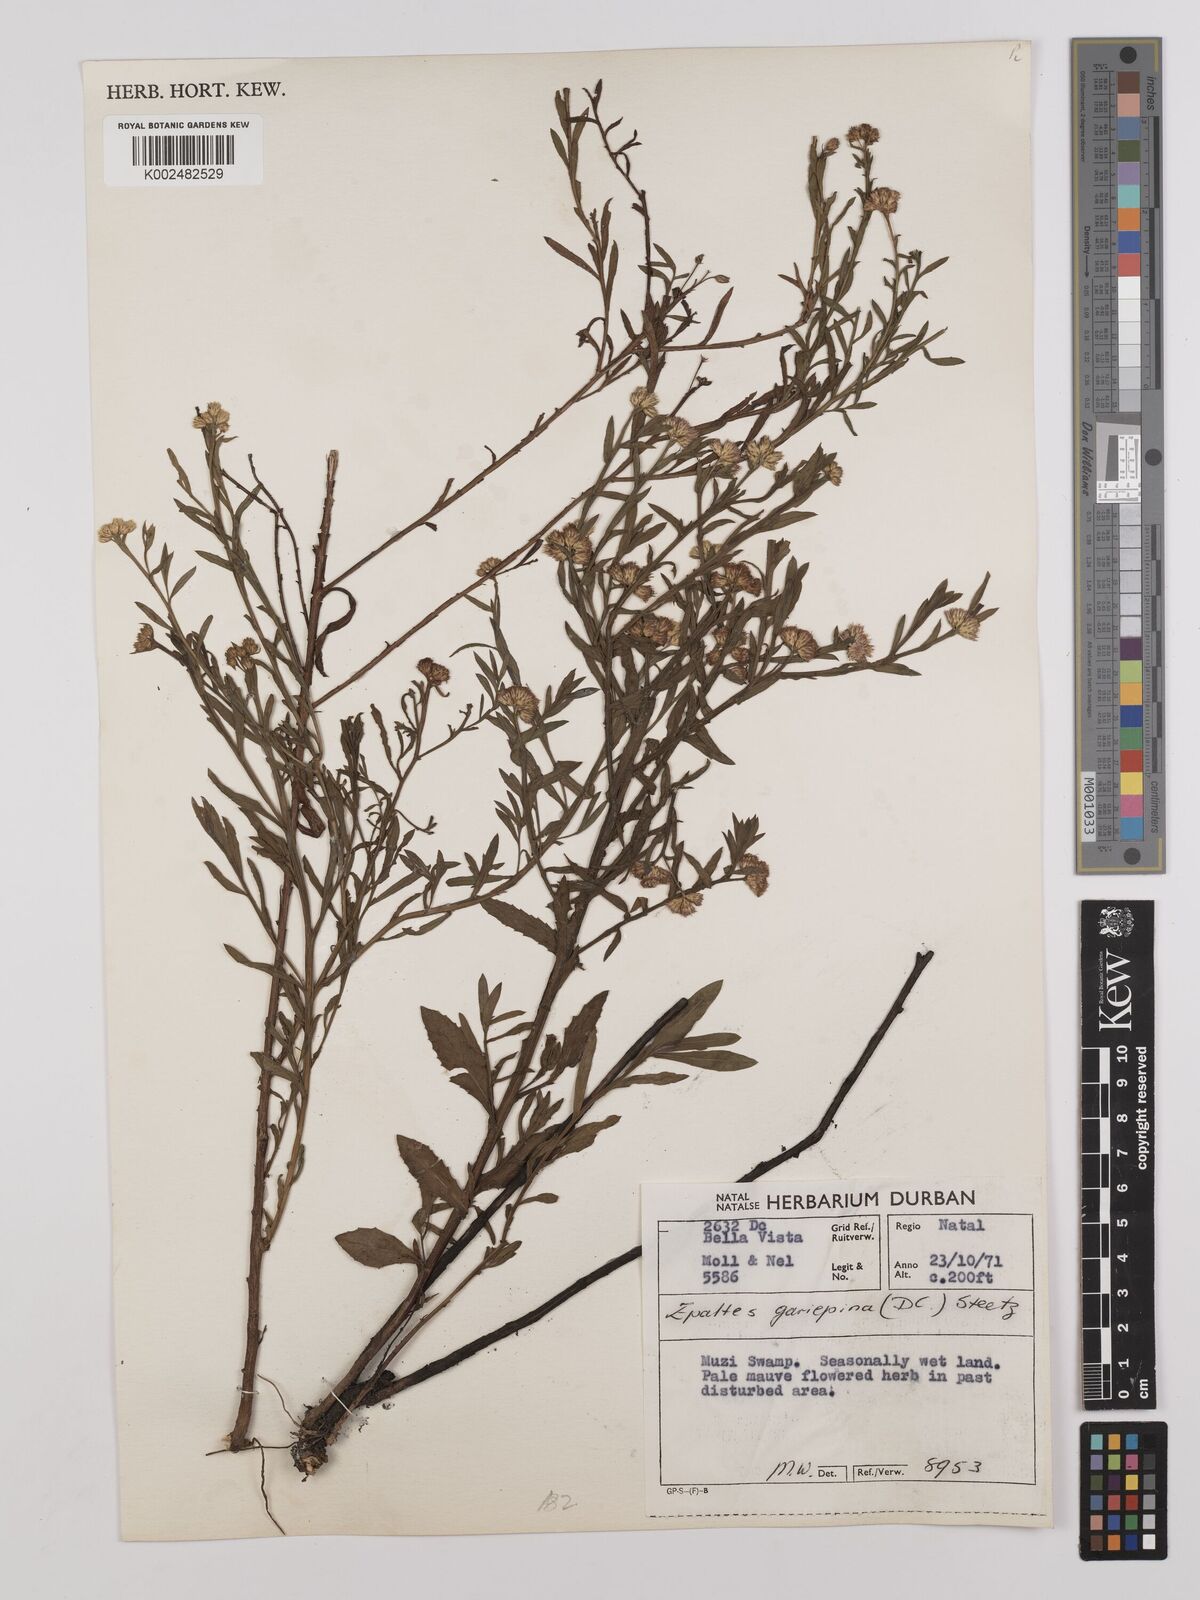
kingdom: Plantae
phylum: Tracheophyta
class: Magnoliopsida
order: Asterales
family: Asteraceae
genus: Litogyne
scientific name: Litogyne gariepina
